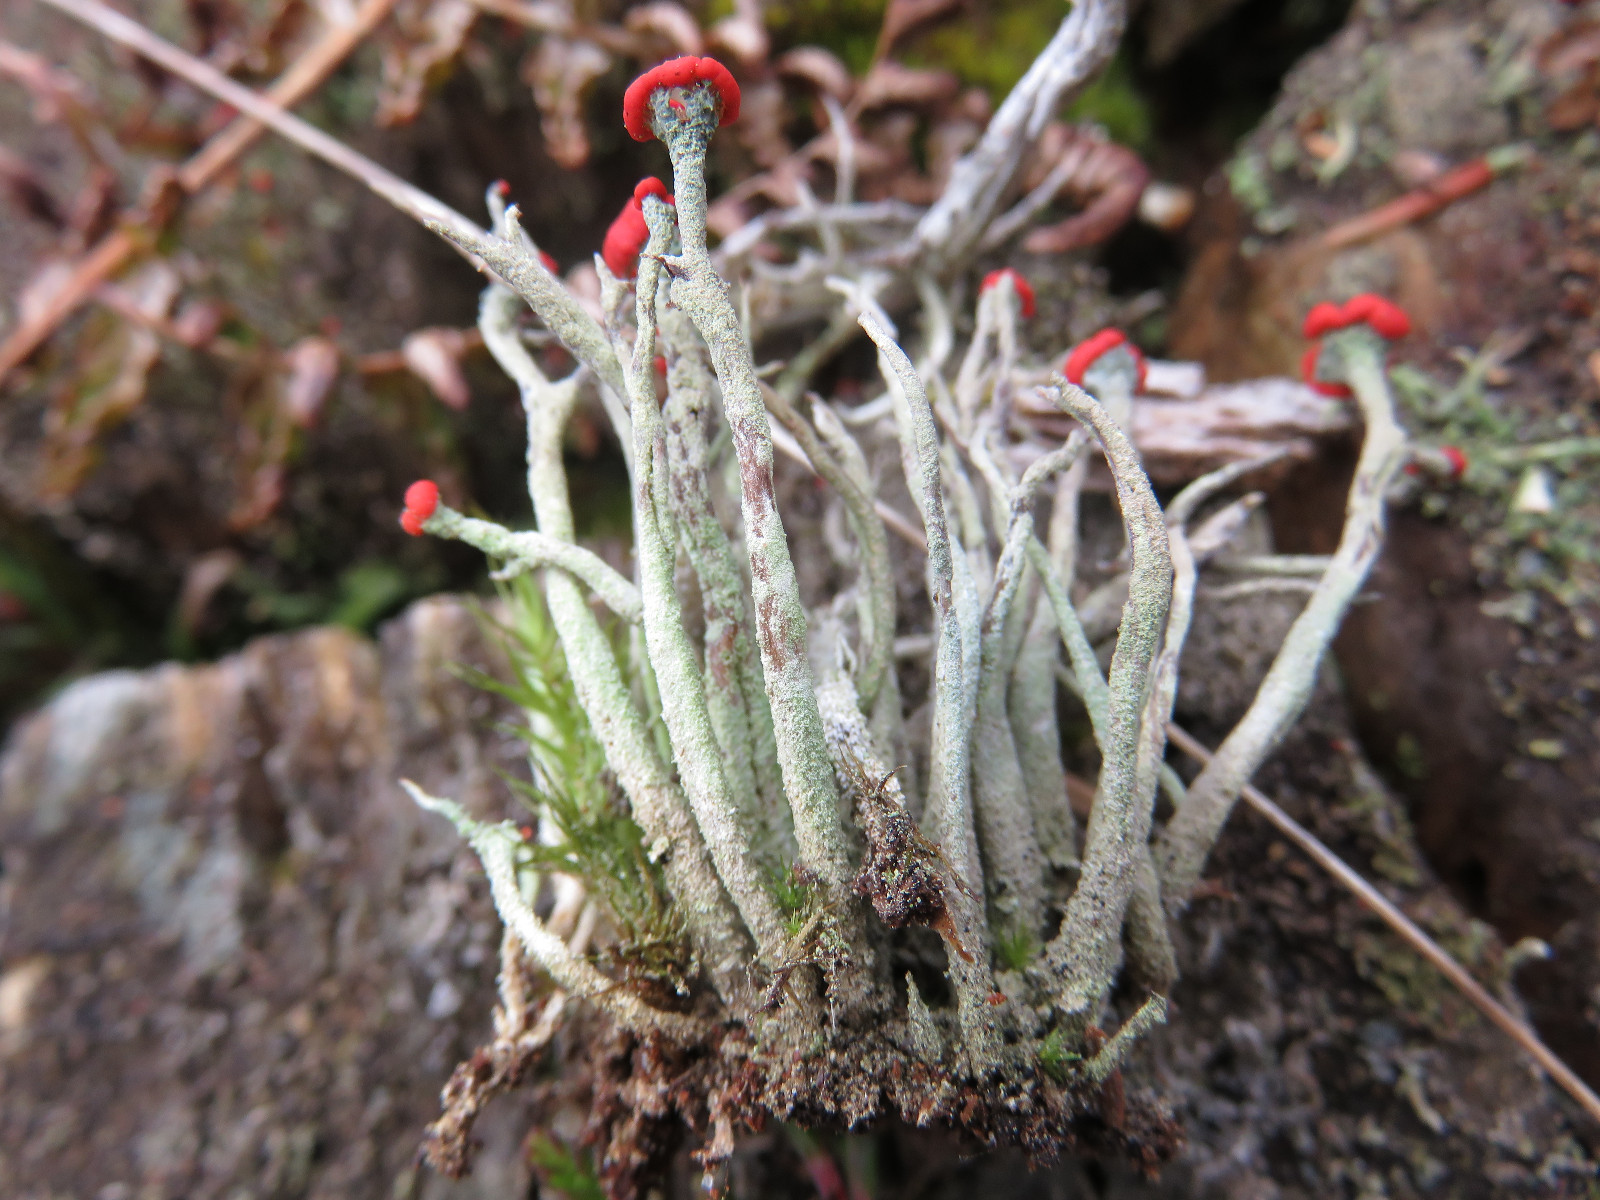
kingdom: Fungi
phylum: Ascomycota
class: Lecanoromycetes
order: Lecanorales
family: Cladoniaceae
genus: Cladonia
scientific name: Cladonia macilenta
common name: indsvunden bægerlav
